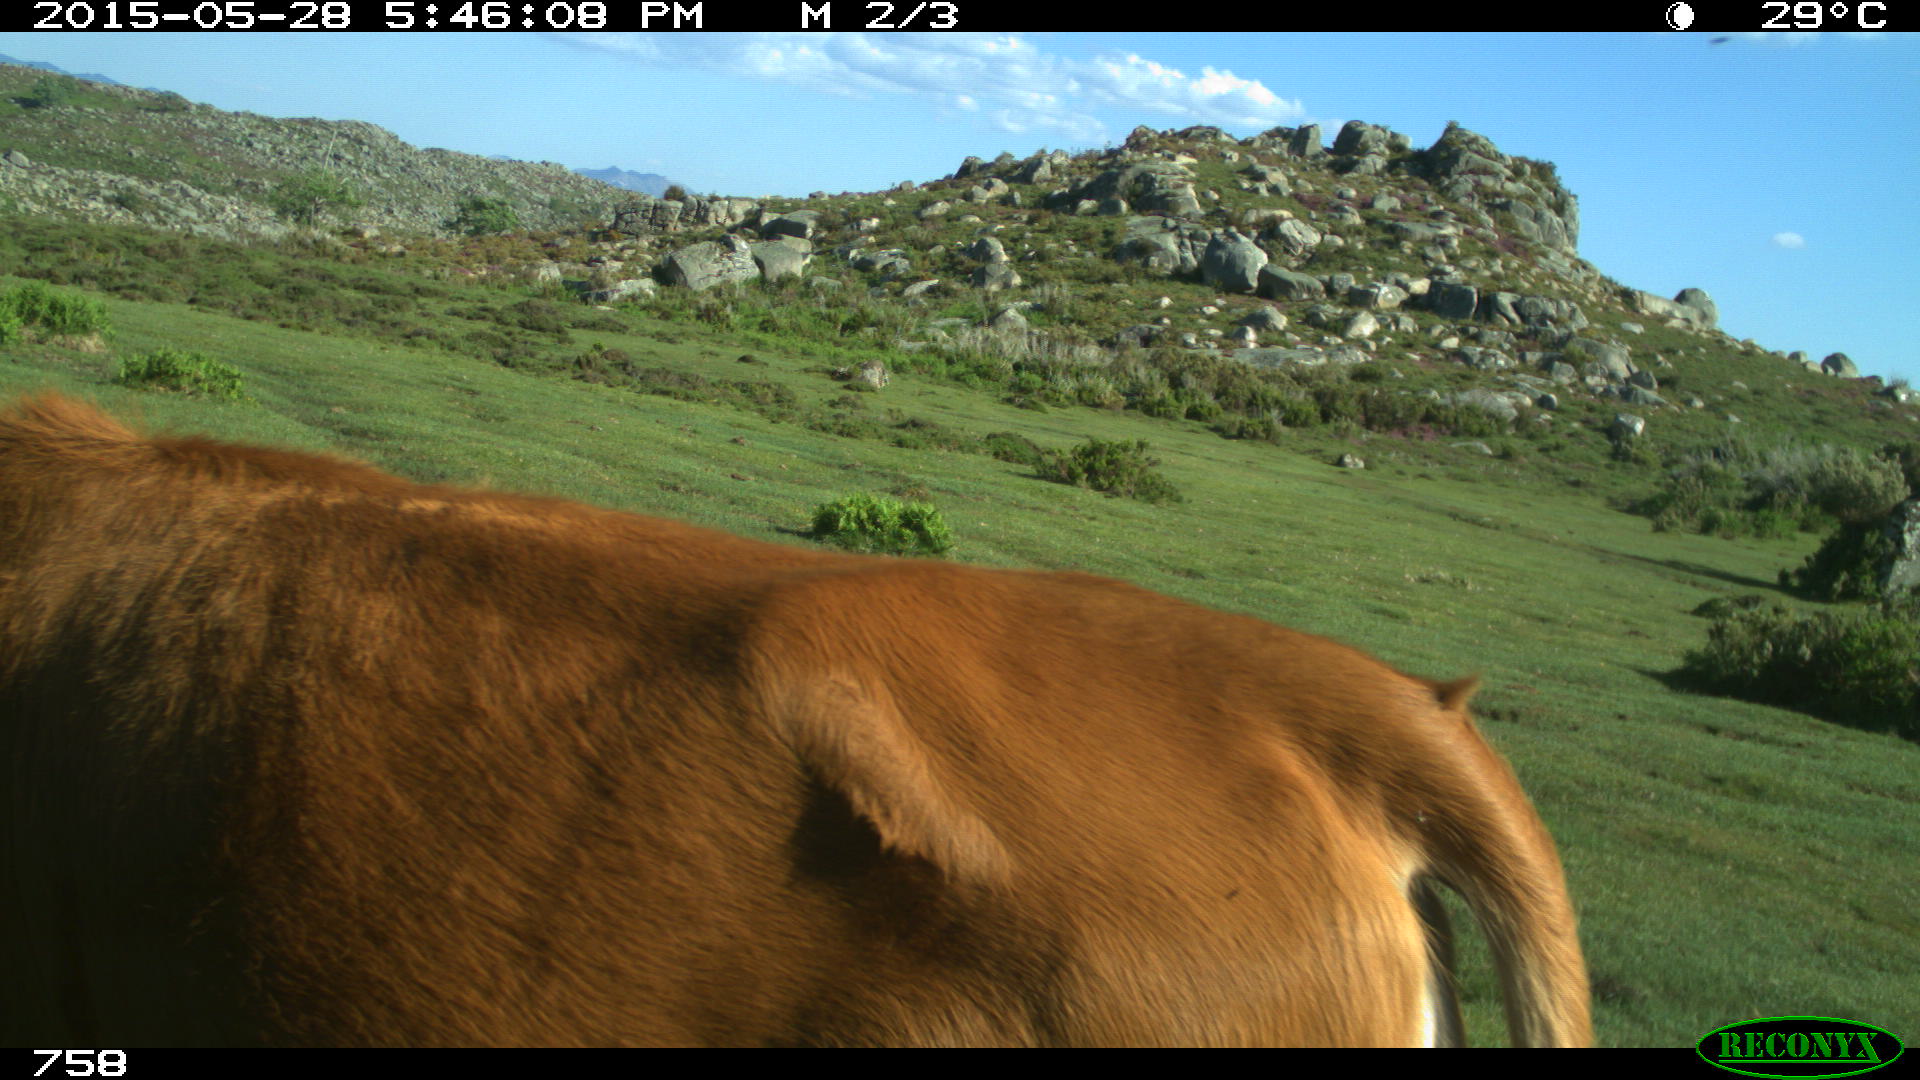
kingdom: Animalia
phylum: Chordata
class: Mammalia
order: Artiodactyla
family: Bovidae
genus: Bos
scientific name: Bos taurus
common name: Domesticated cattle
